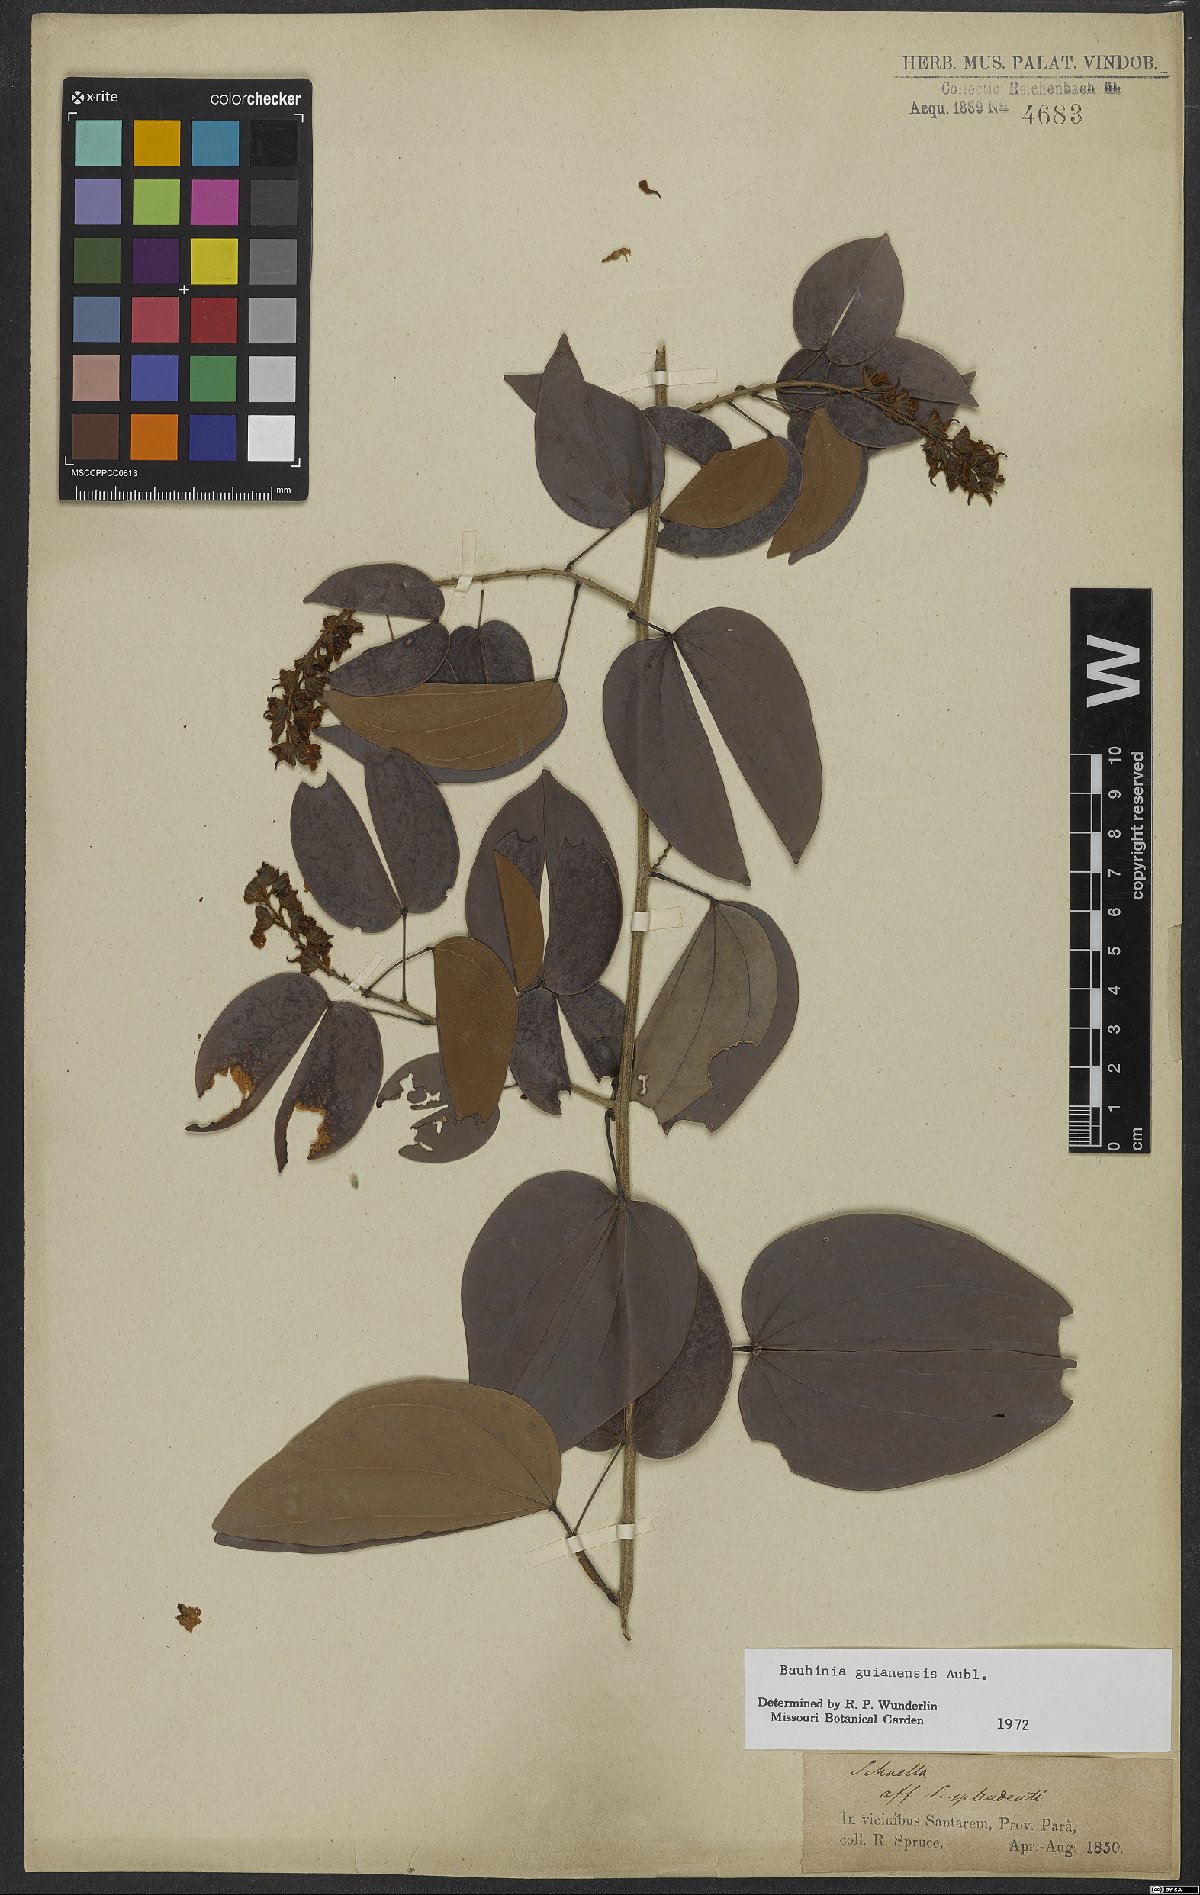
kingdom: Plantae
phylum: Tracheophyta
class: Magnoliopsida
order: Fabales
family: Fabaceae
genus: Schnella
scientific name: Schnella guianensis
